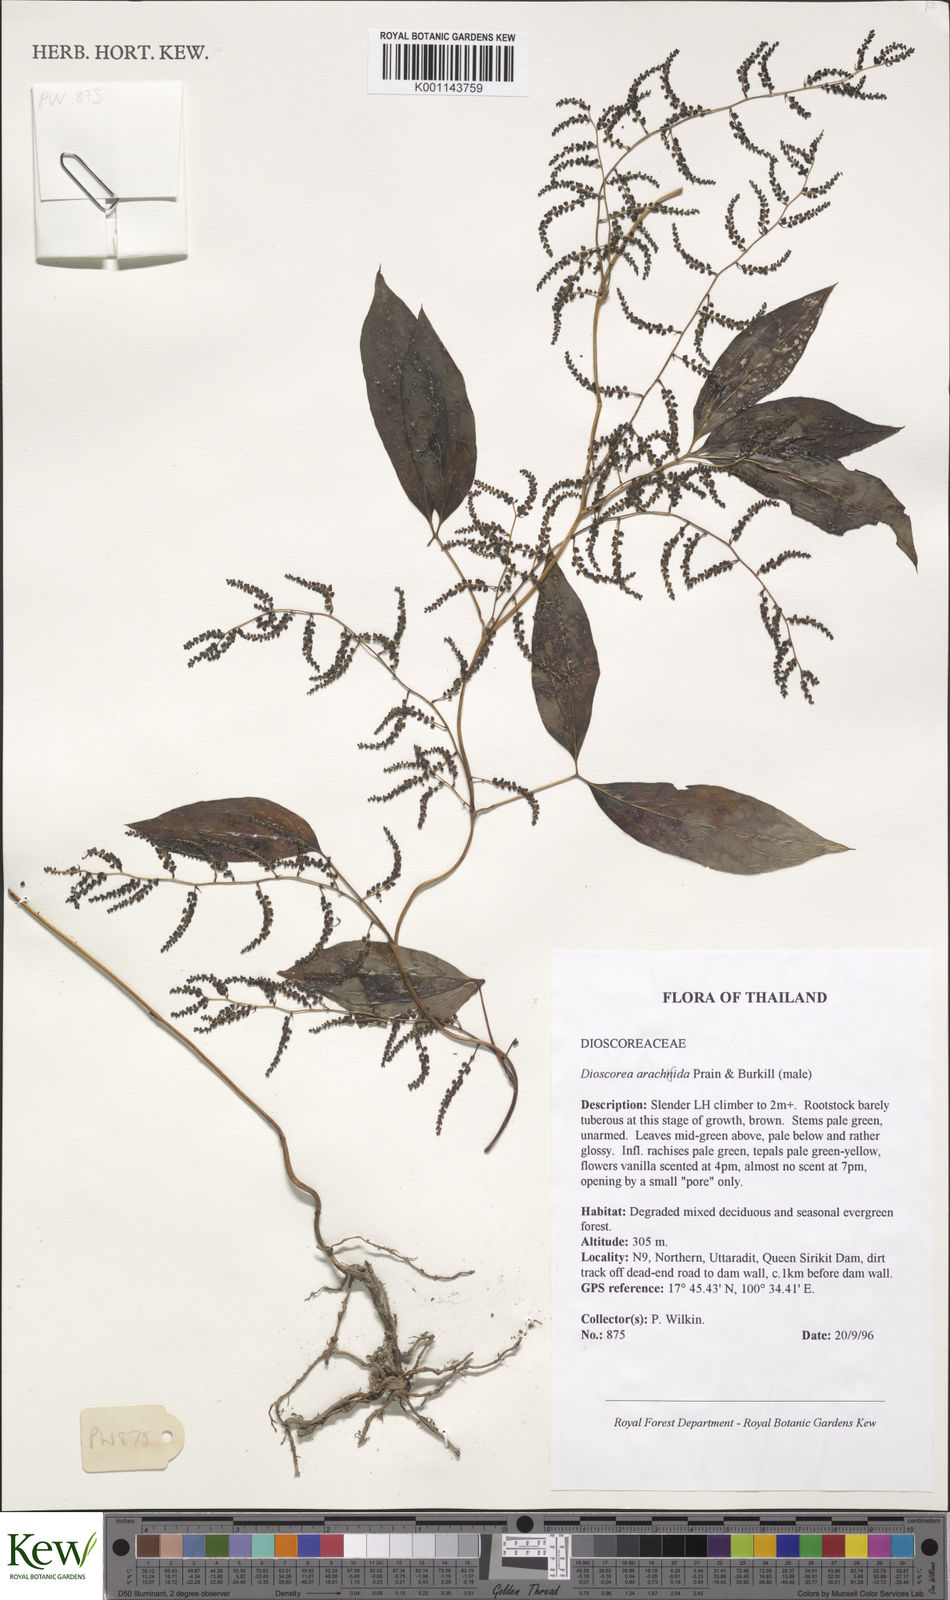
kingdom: Plantae
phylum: Tracheophyta
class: Liliopsida
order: Dioscoreales
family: Dioscoreaceae
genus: Dioscorea
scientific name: Dioscorea arachidna
